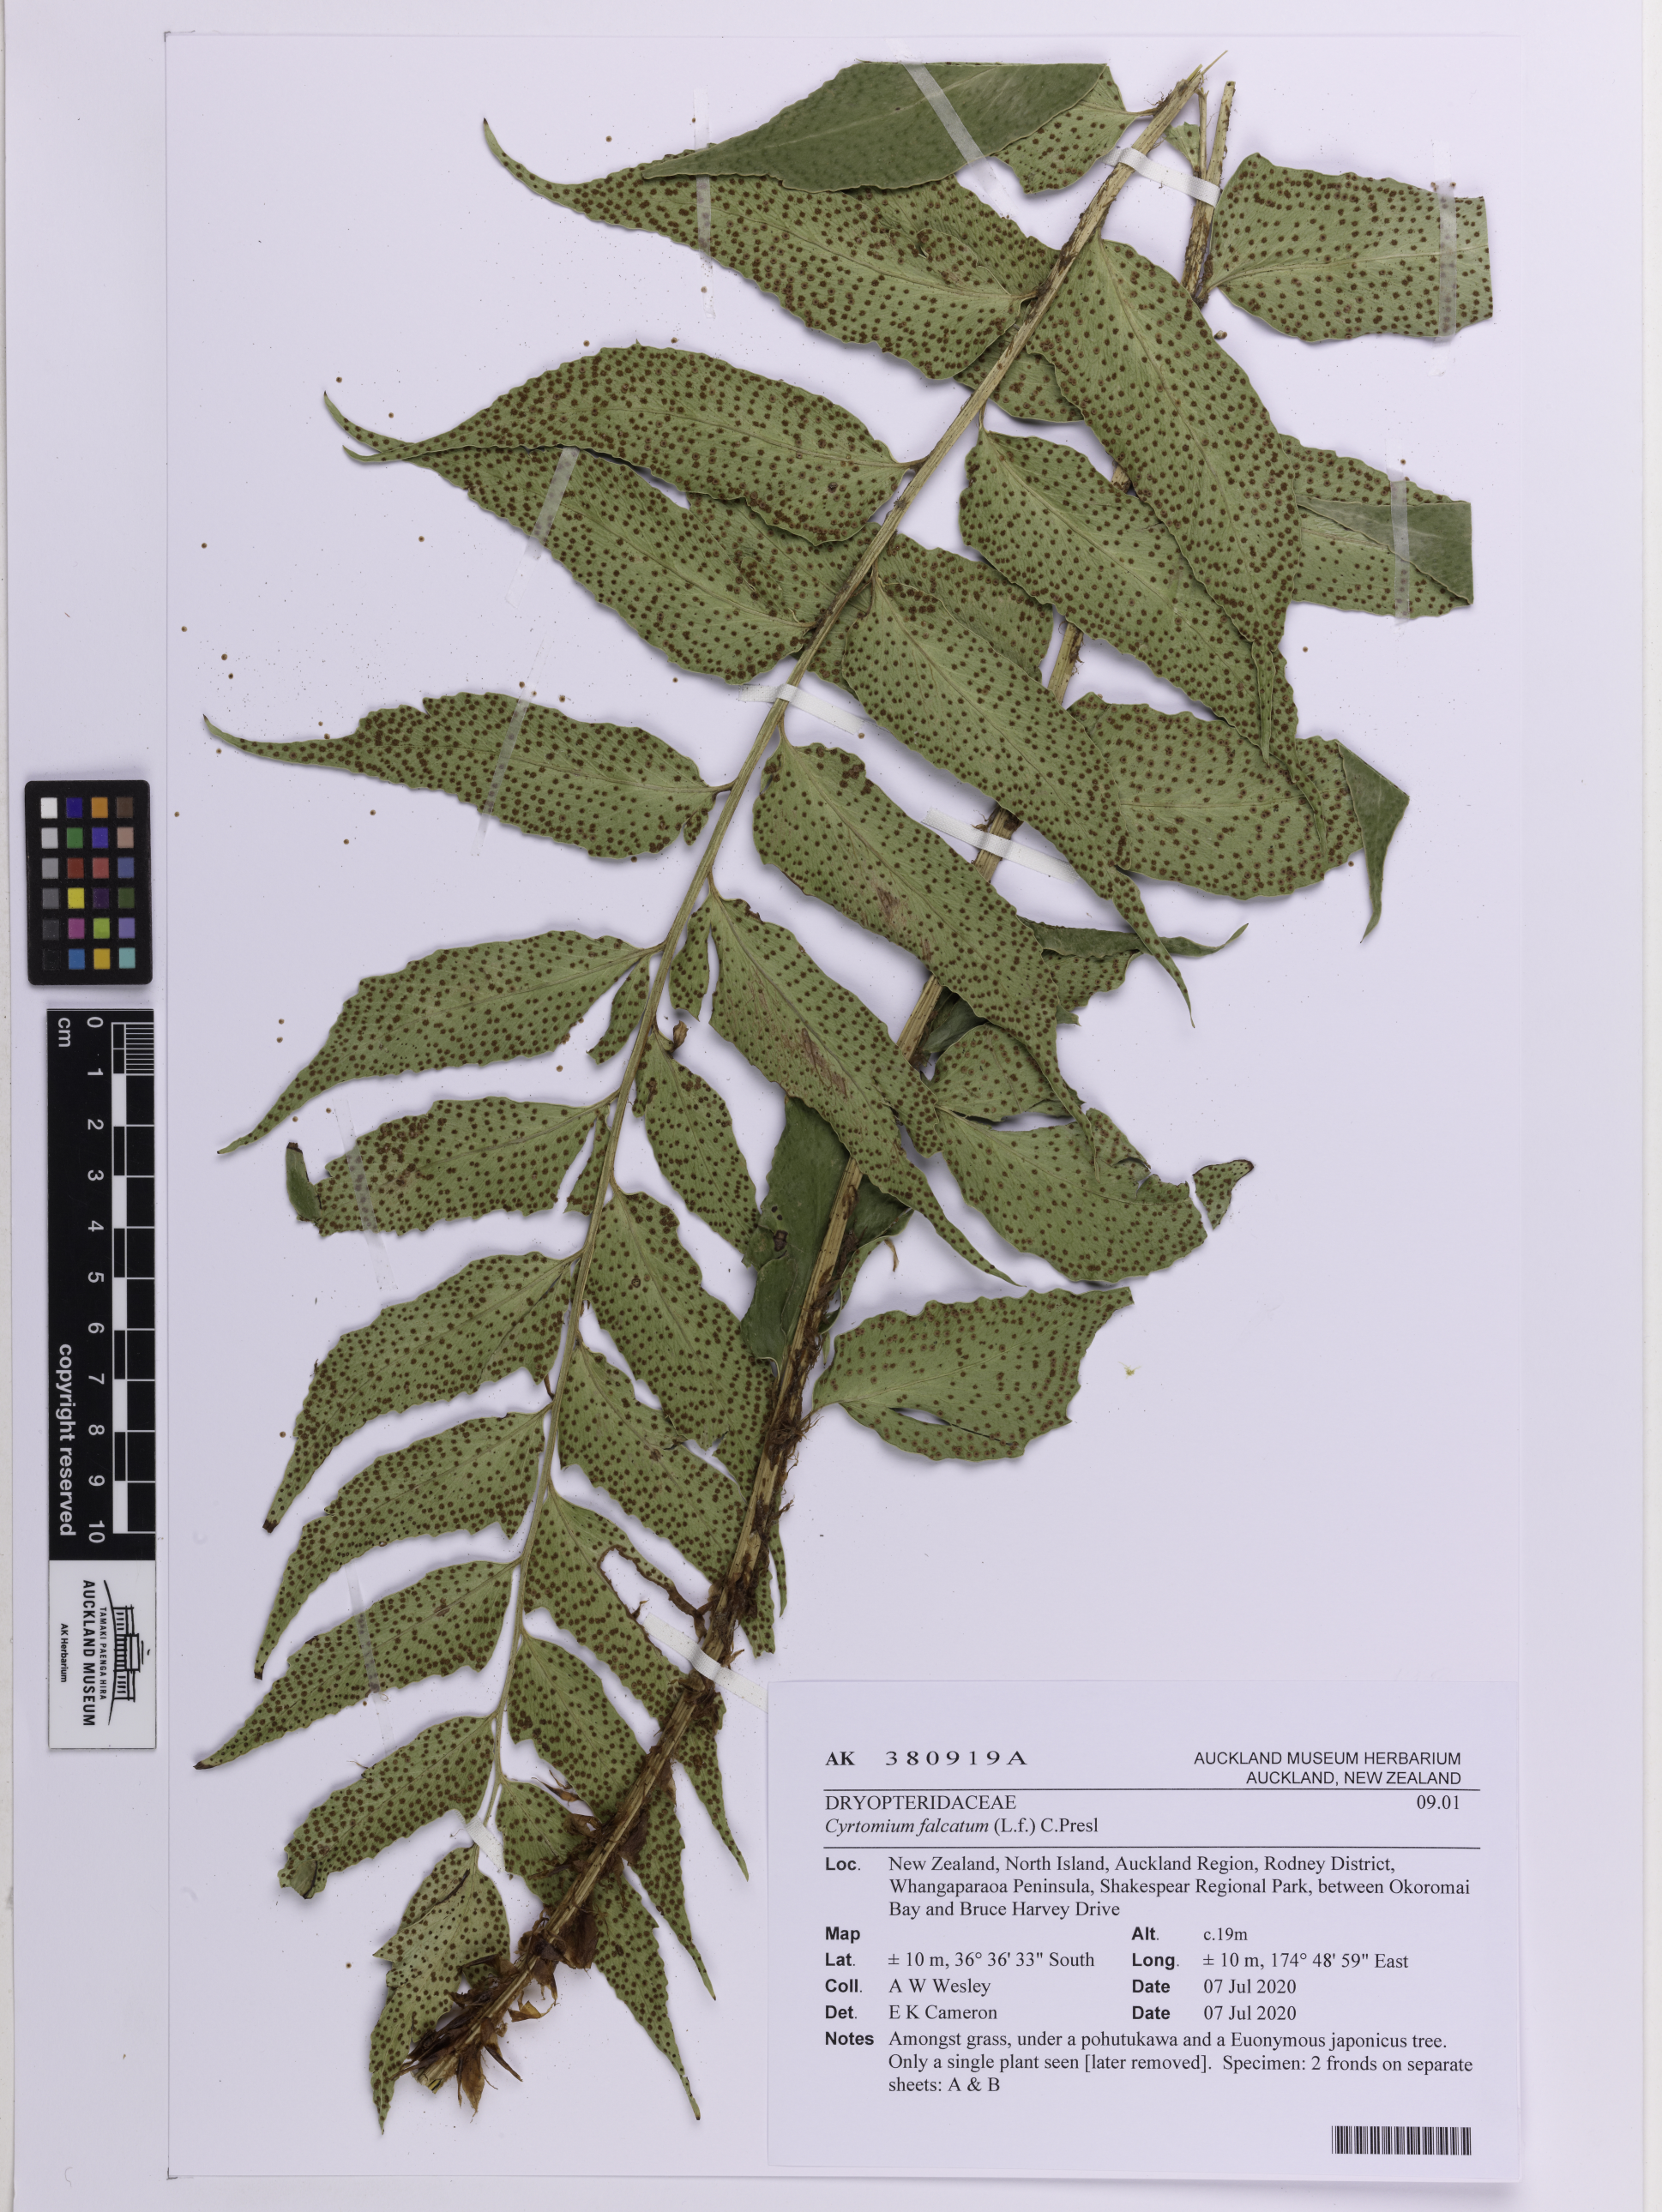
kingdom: Plantae
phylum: Tracheophyta
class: Polypodiopsida
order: Polypodiales
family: Dryopteridaceae
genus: Cyrtomium
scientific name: Cyrtomium falcatum
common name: House holly-fern
